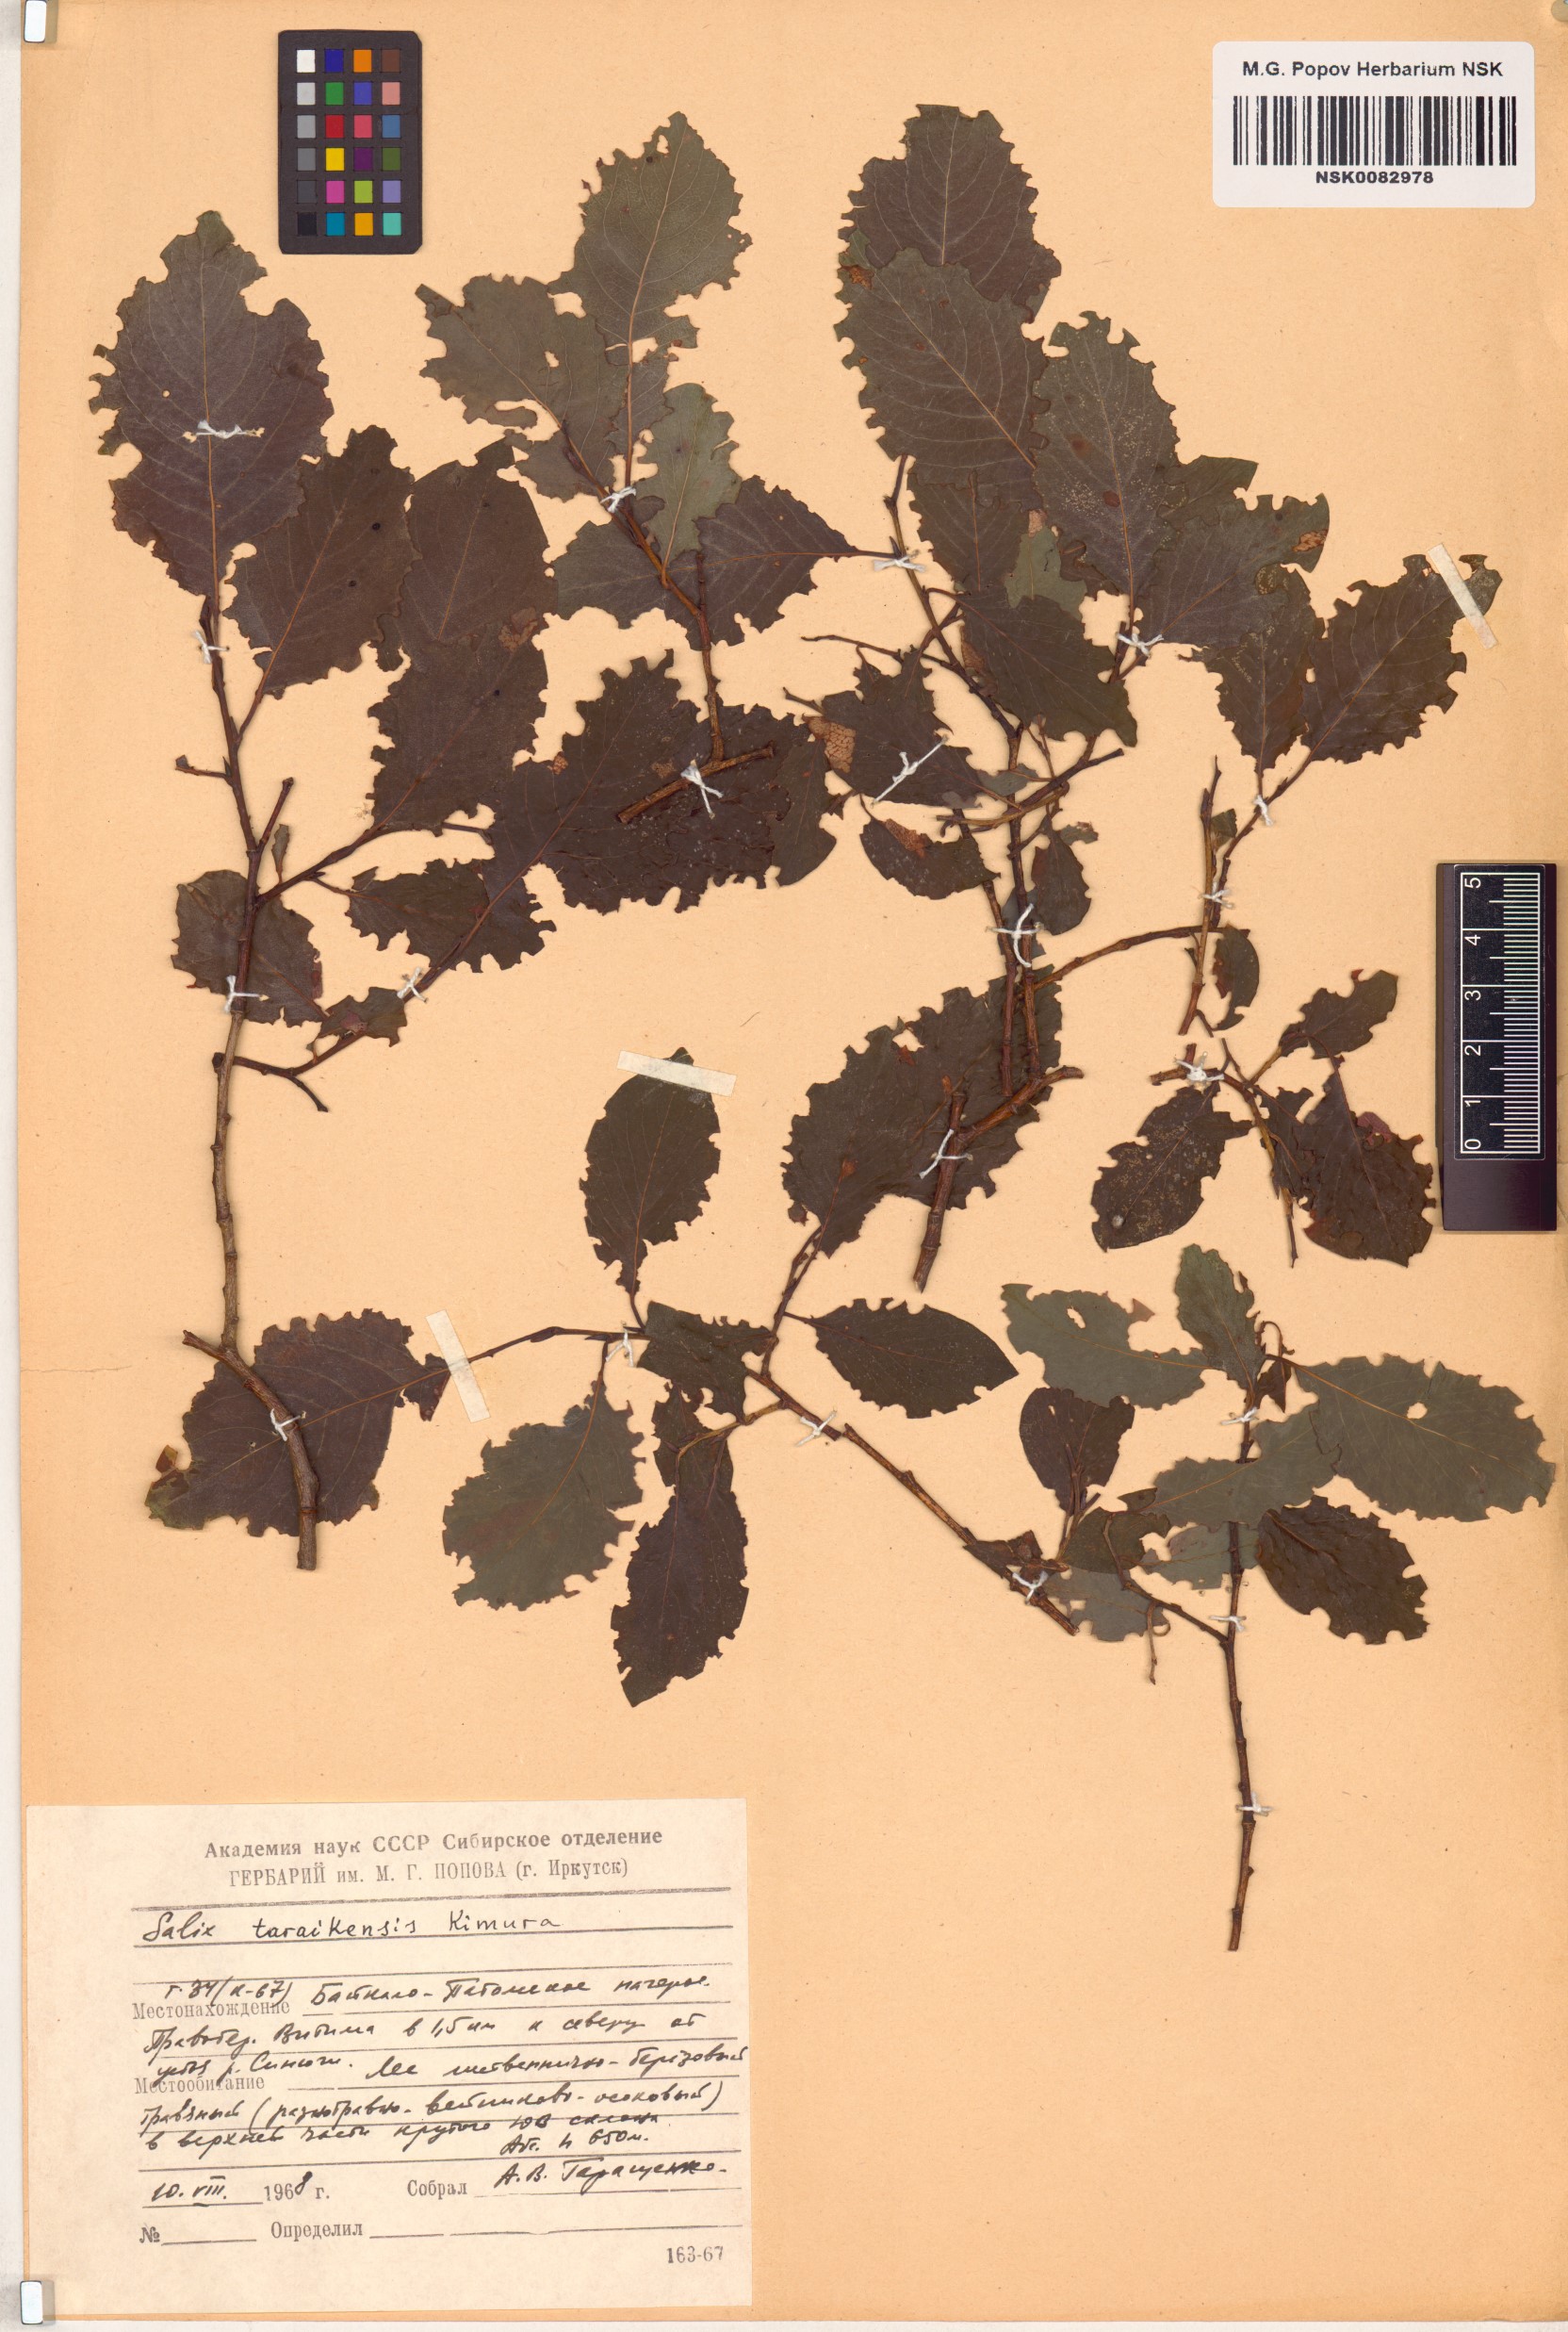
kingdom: Plantae
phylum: Tracheophyta
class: Magnoliopsida
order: Malpighiales
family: Salicaceae
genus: Salix
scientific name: Salix taraikensis
